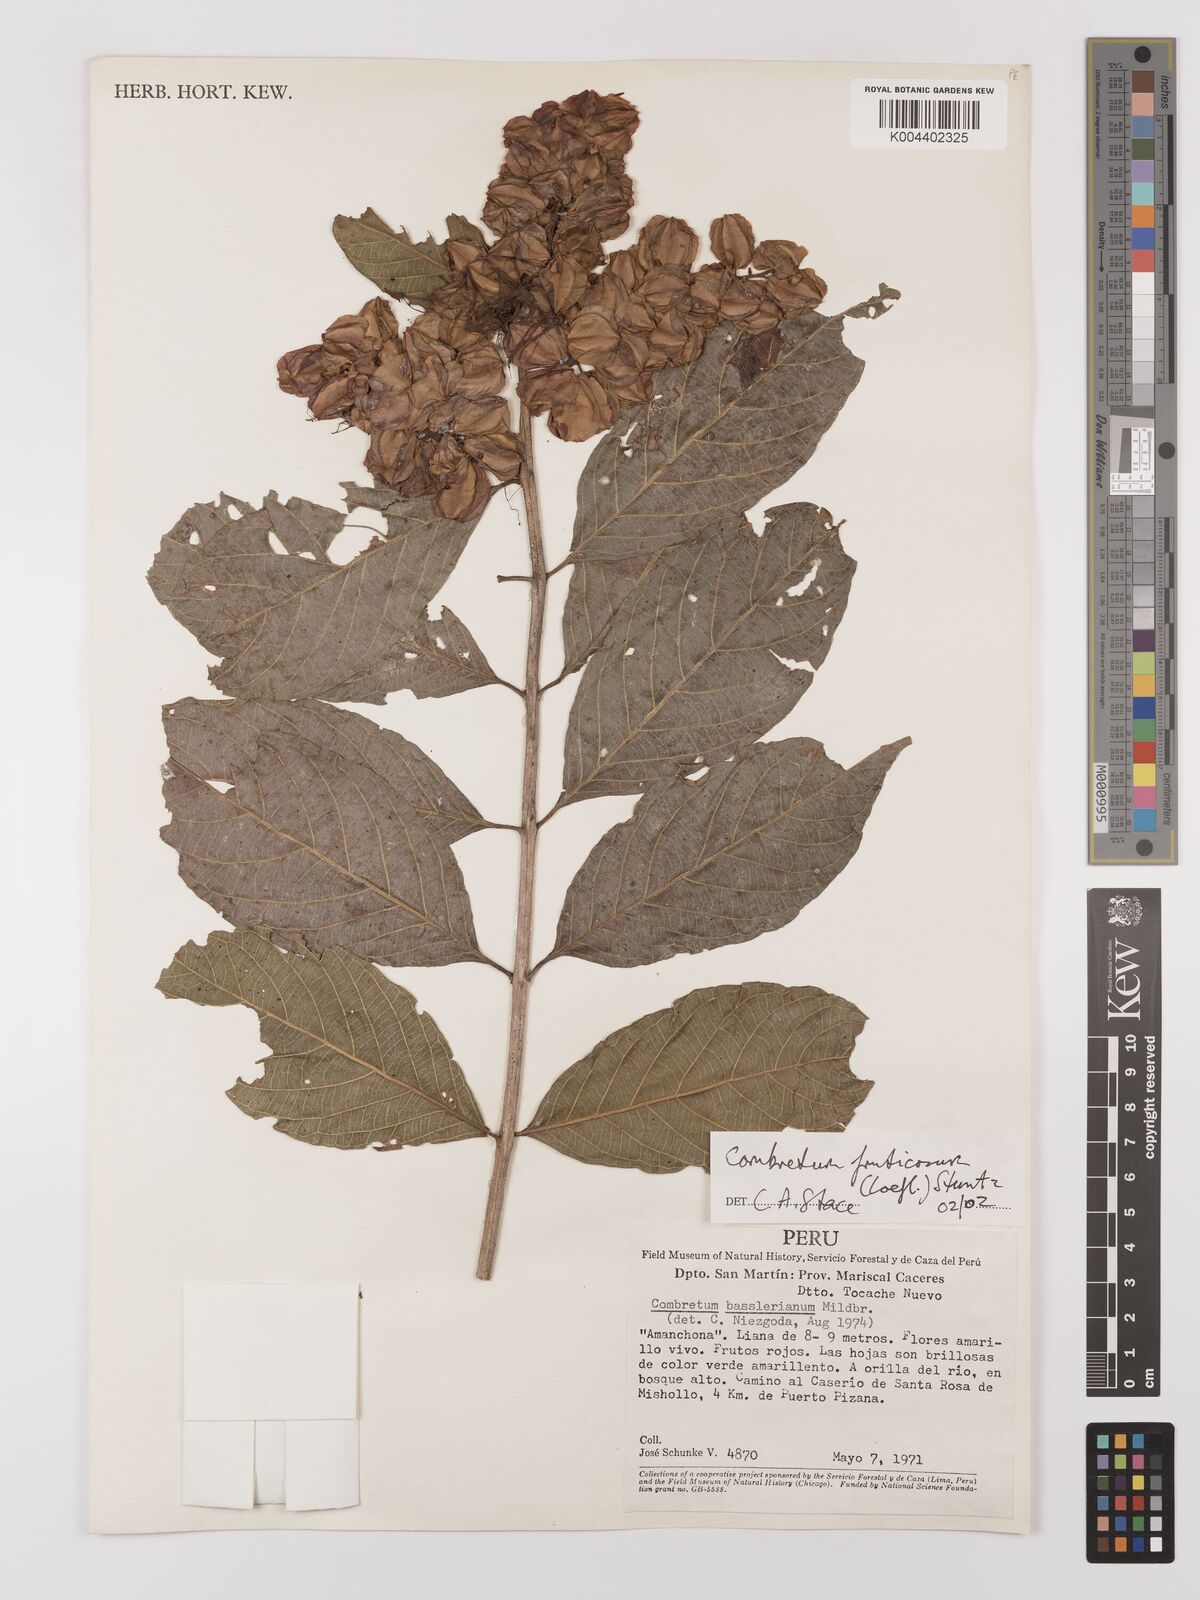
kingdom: Plantae
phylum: Tracheophyta
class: Magnoliopsida
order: Myrtales
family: Combretaceae
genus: Combretum
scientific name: Combretum fruticosum
